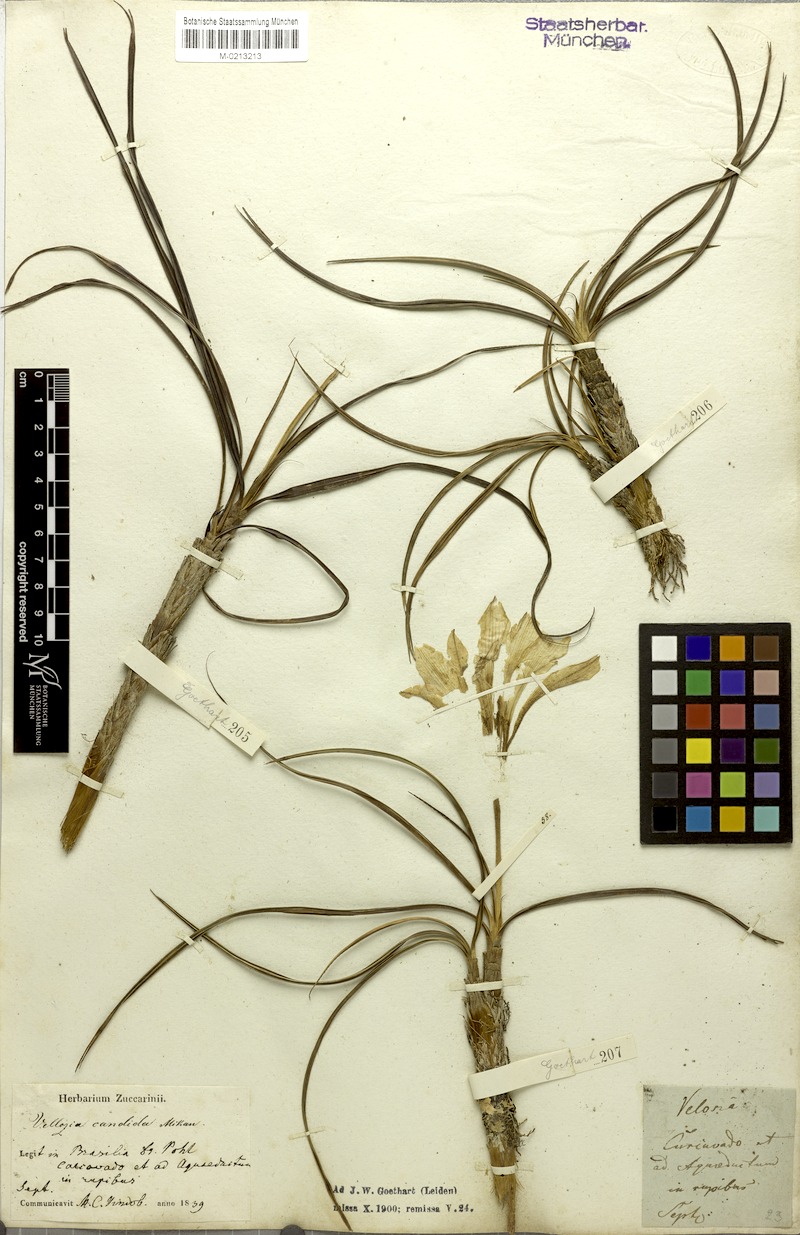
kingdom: Plantae
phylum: Tracheophyta
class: Liliopsida
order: Pandanales
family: Velloziaceae
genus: Vellozia
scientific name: Vellozia candida
